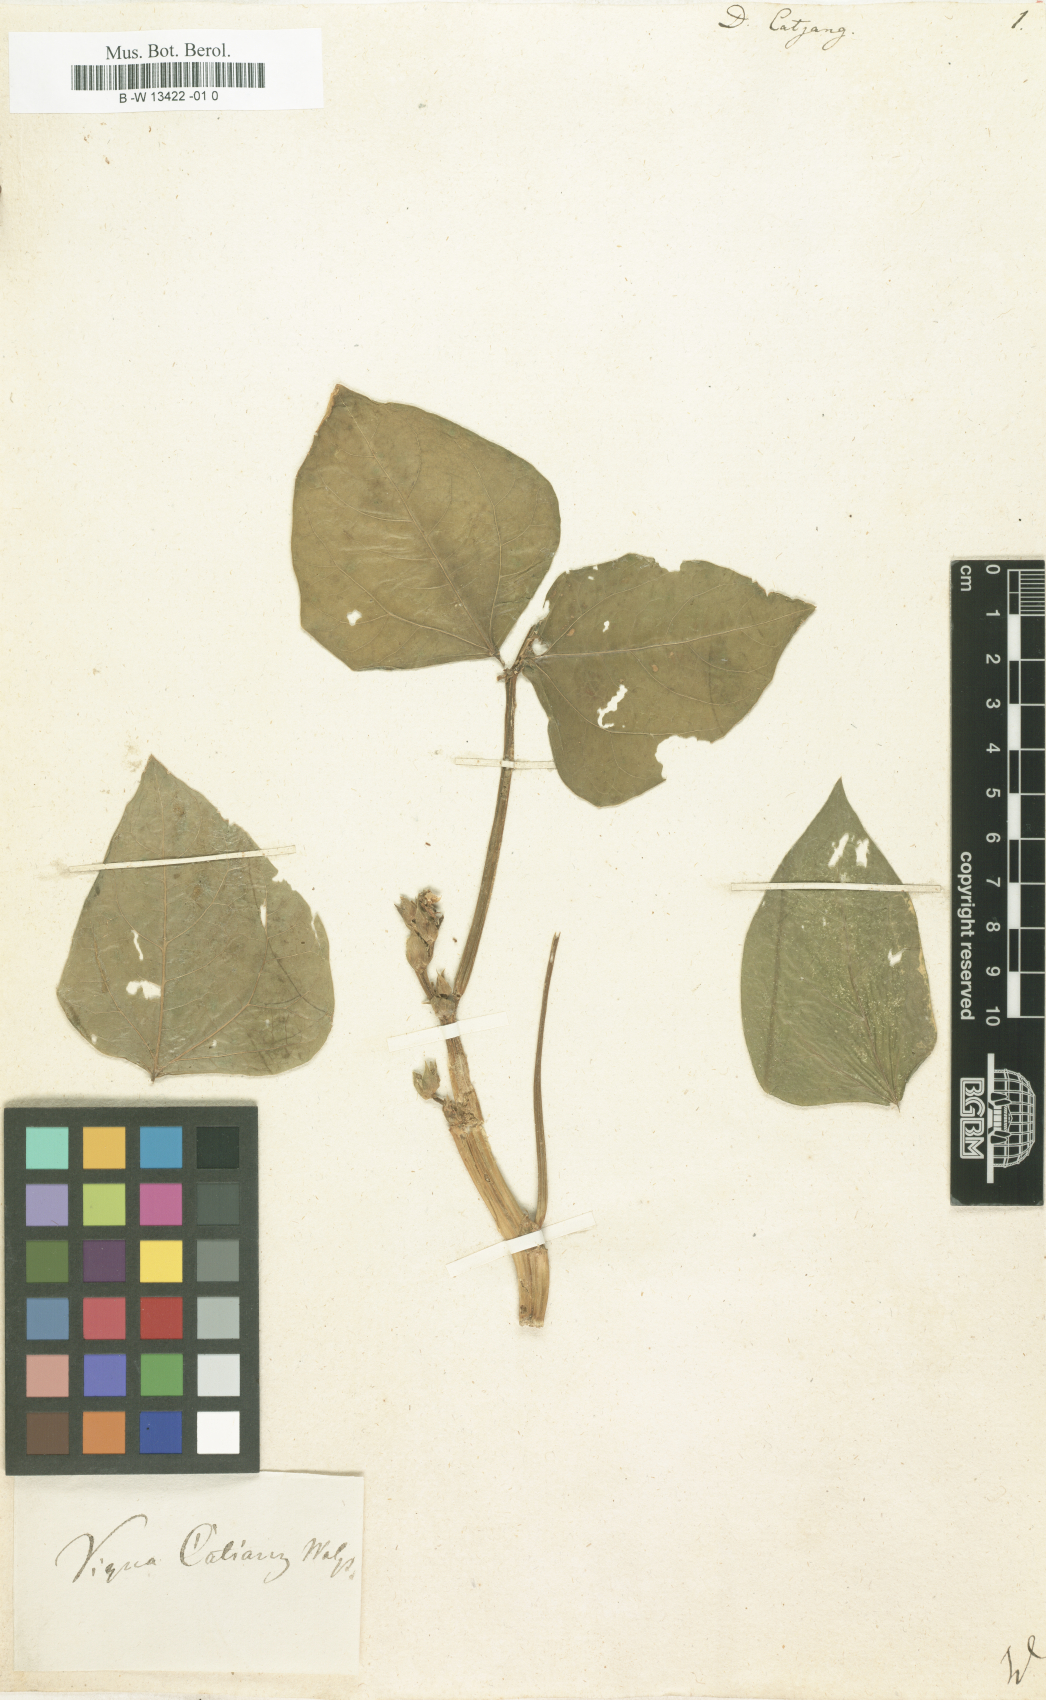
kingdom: Plantae
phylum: Tracheophyta
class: Magnoliopsida
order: Fabales
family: Fabaceae
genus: Vigna
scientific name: Vigna unguiculata
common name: Cowpea
